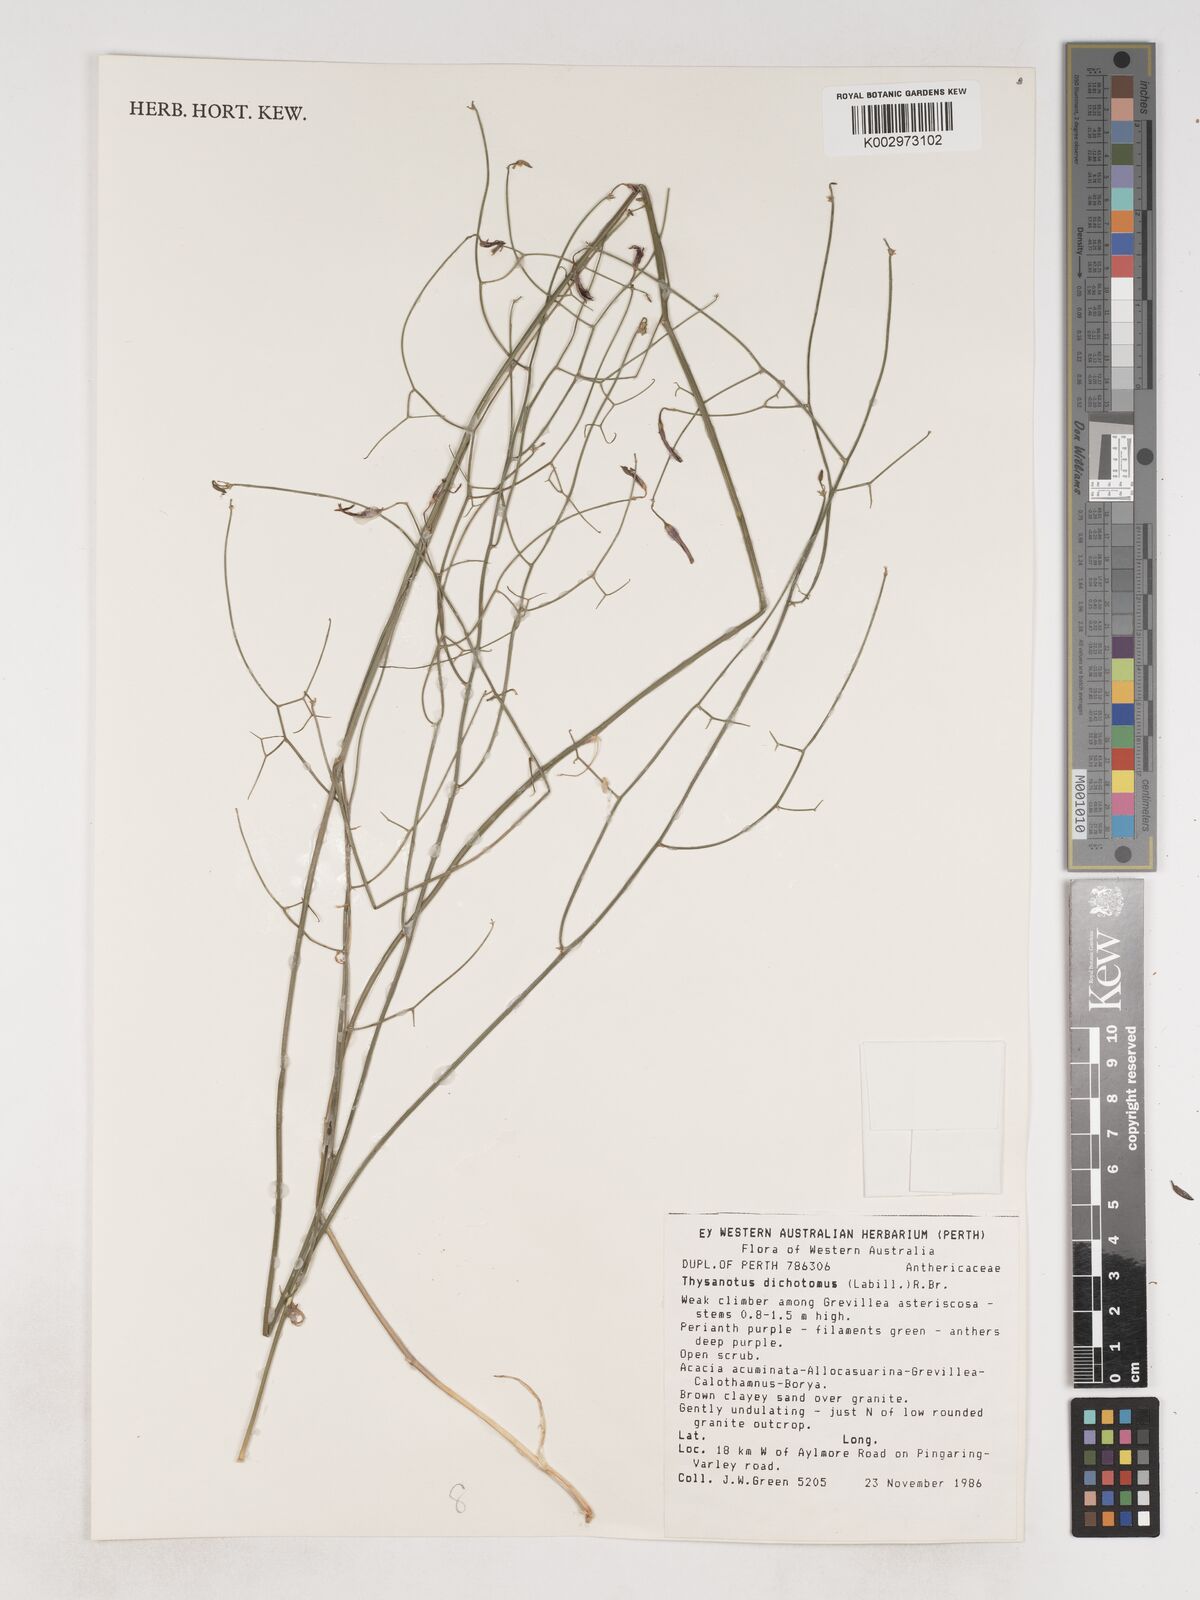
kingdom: Plantae
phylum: Tracheophyta
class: Liliopsida
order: Asparagales
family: Asparagaceae
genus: Thysanotus
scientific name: Thysanotus dichotomus
